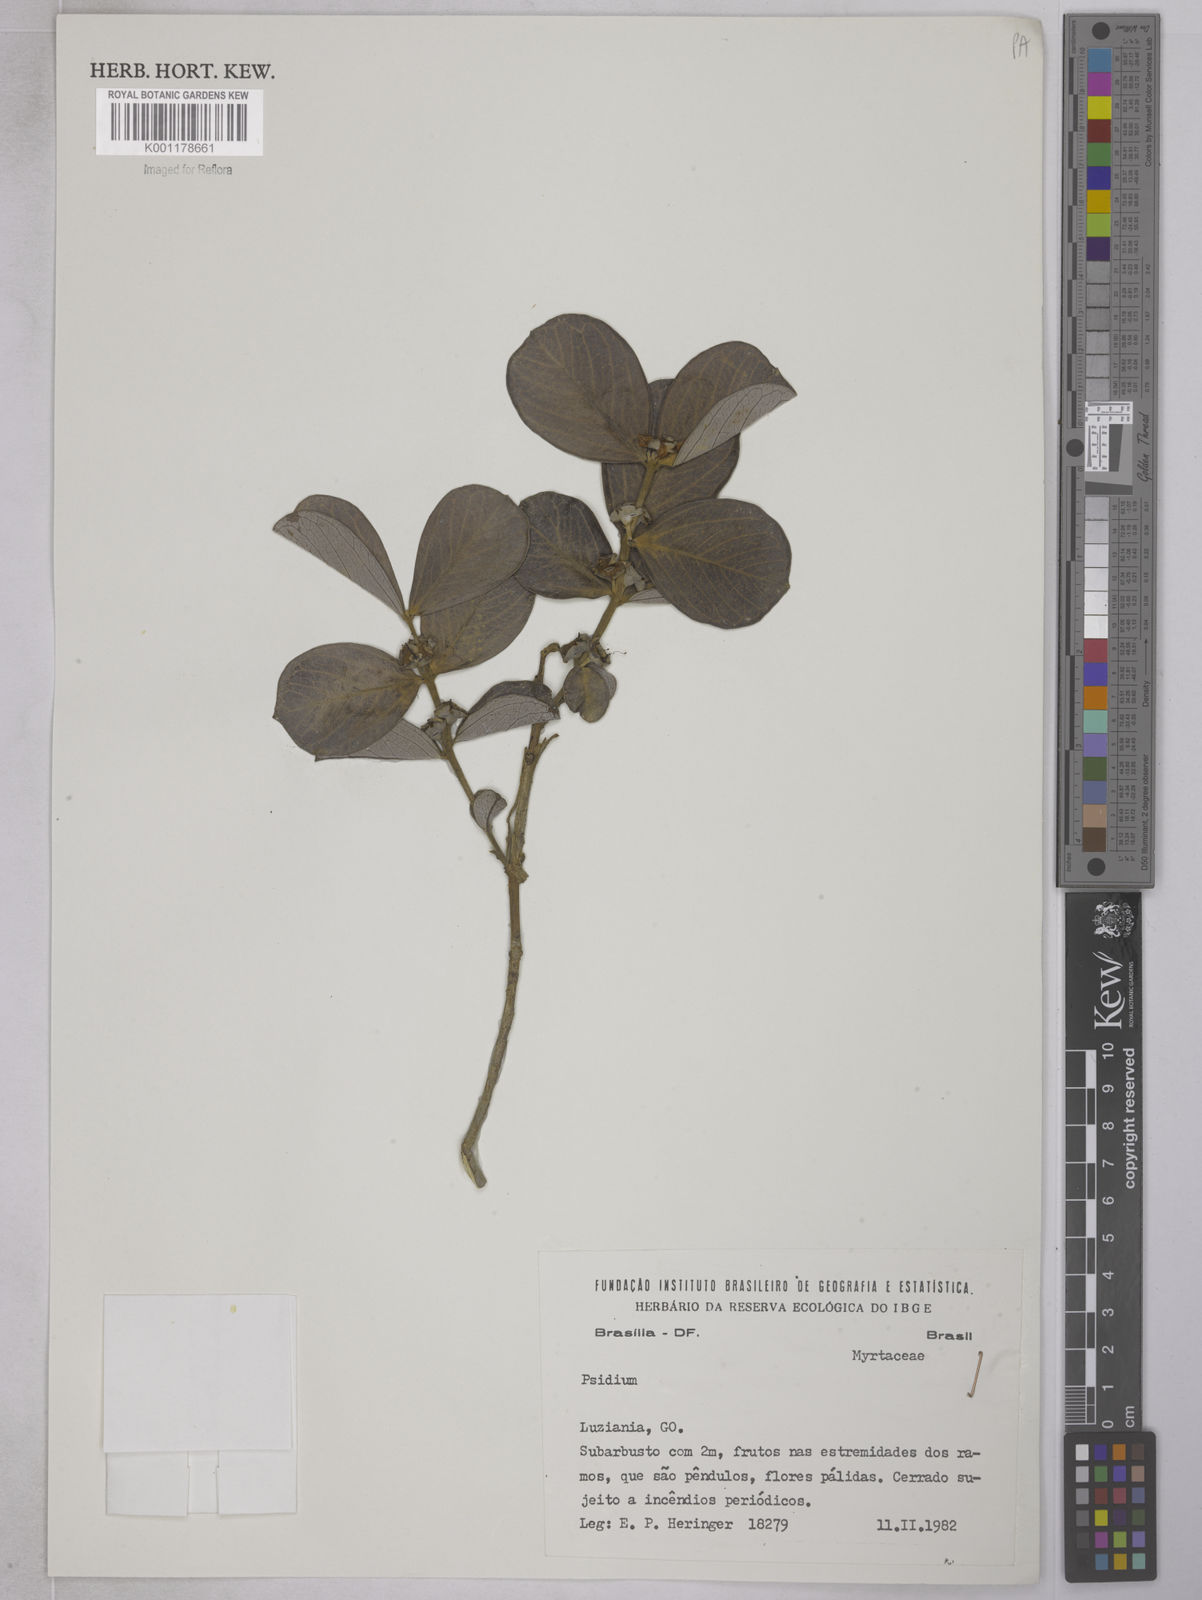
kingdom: Plantae
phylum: Tracheophyta
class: Magnoliopsida
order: Myrtales
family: Myrtaceae
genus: Psidium
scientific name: Psidium grandifolium
